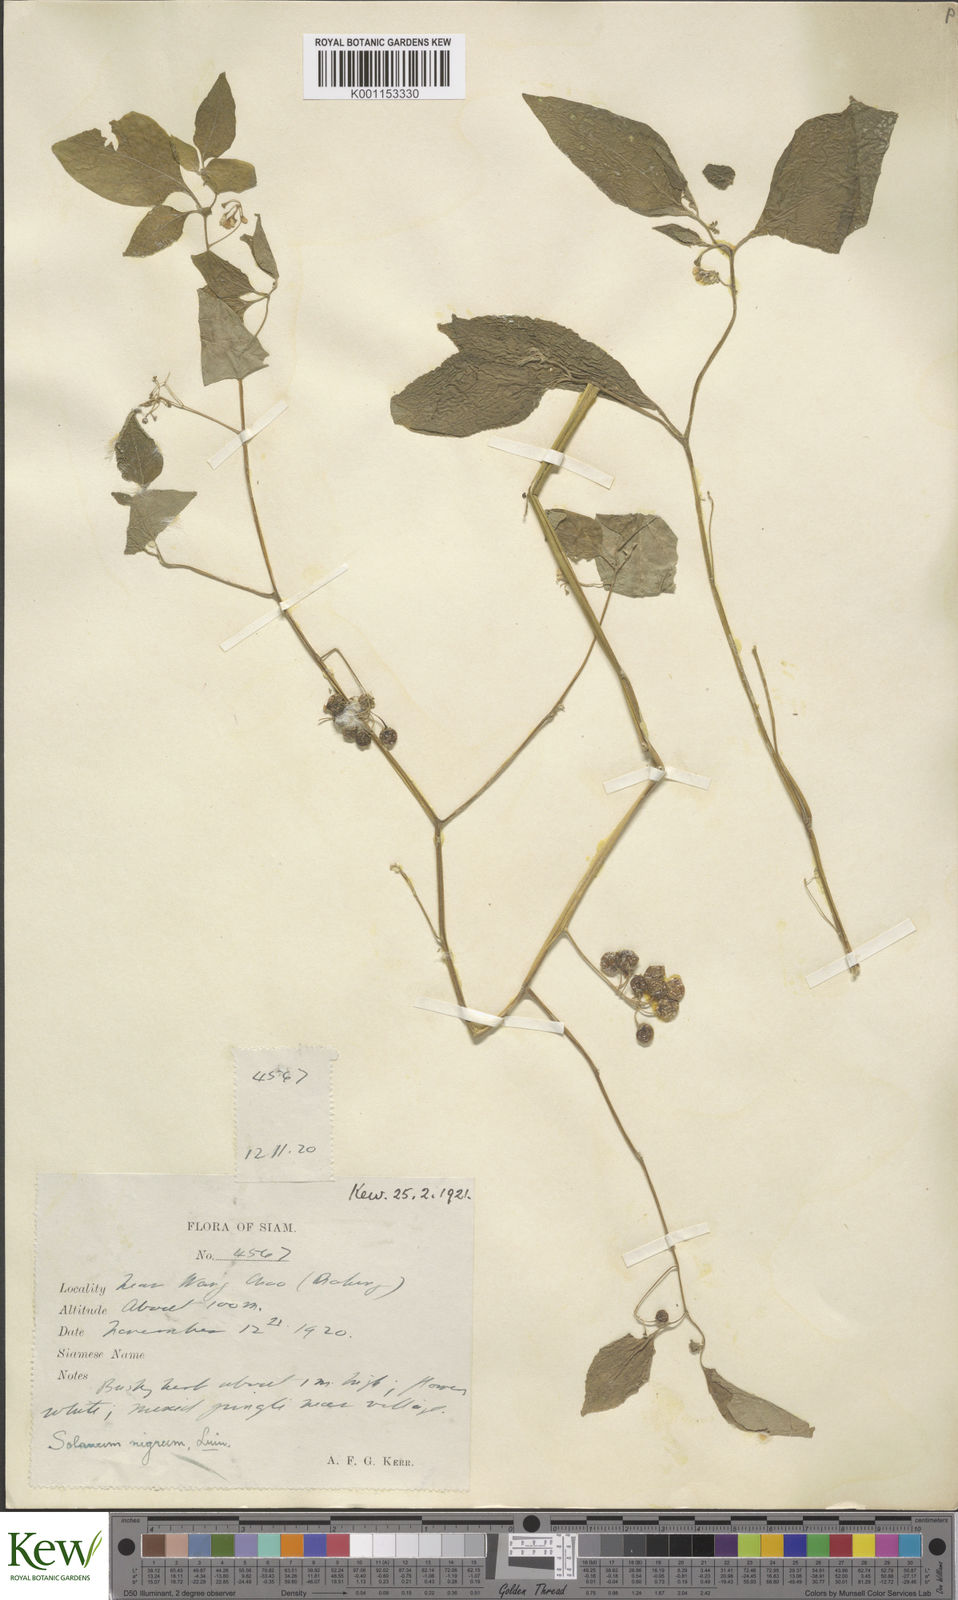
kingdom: Plantae
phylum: Tracheophyta
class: Magnoliopsida
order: Solanales
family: Solanaceae
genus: Solanum
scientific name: Solanum nigrum
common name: Black nightshade
